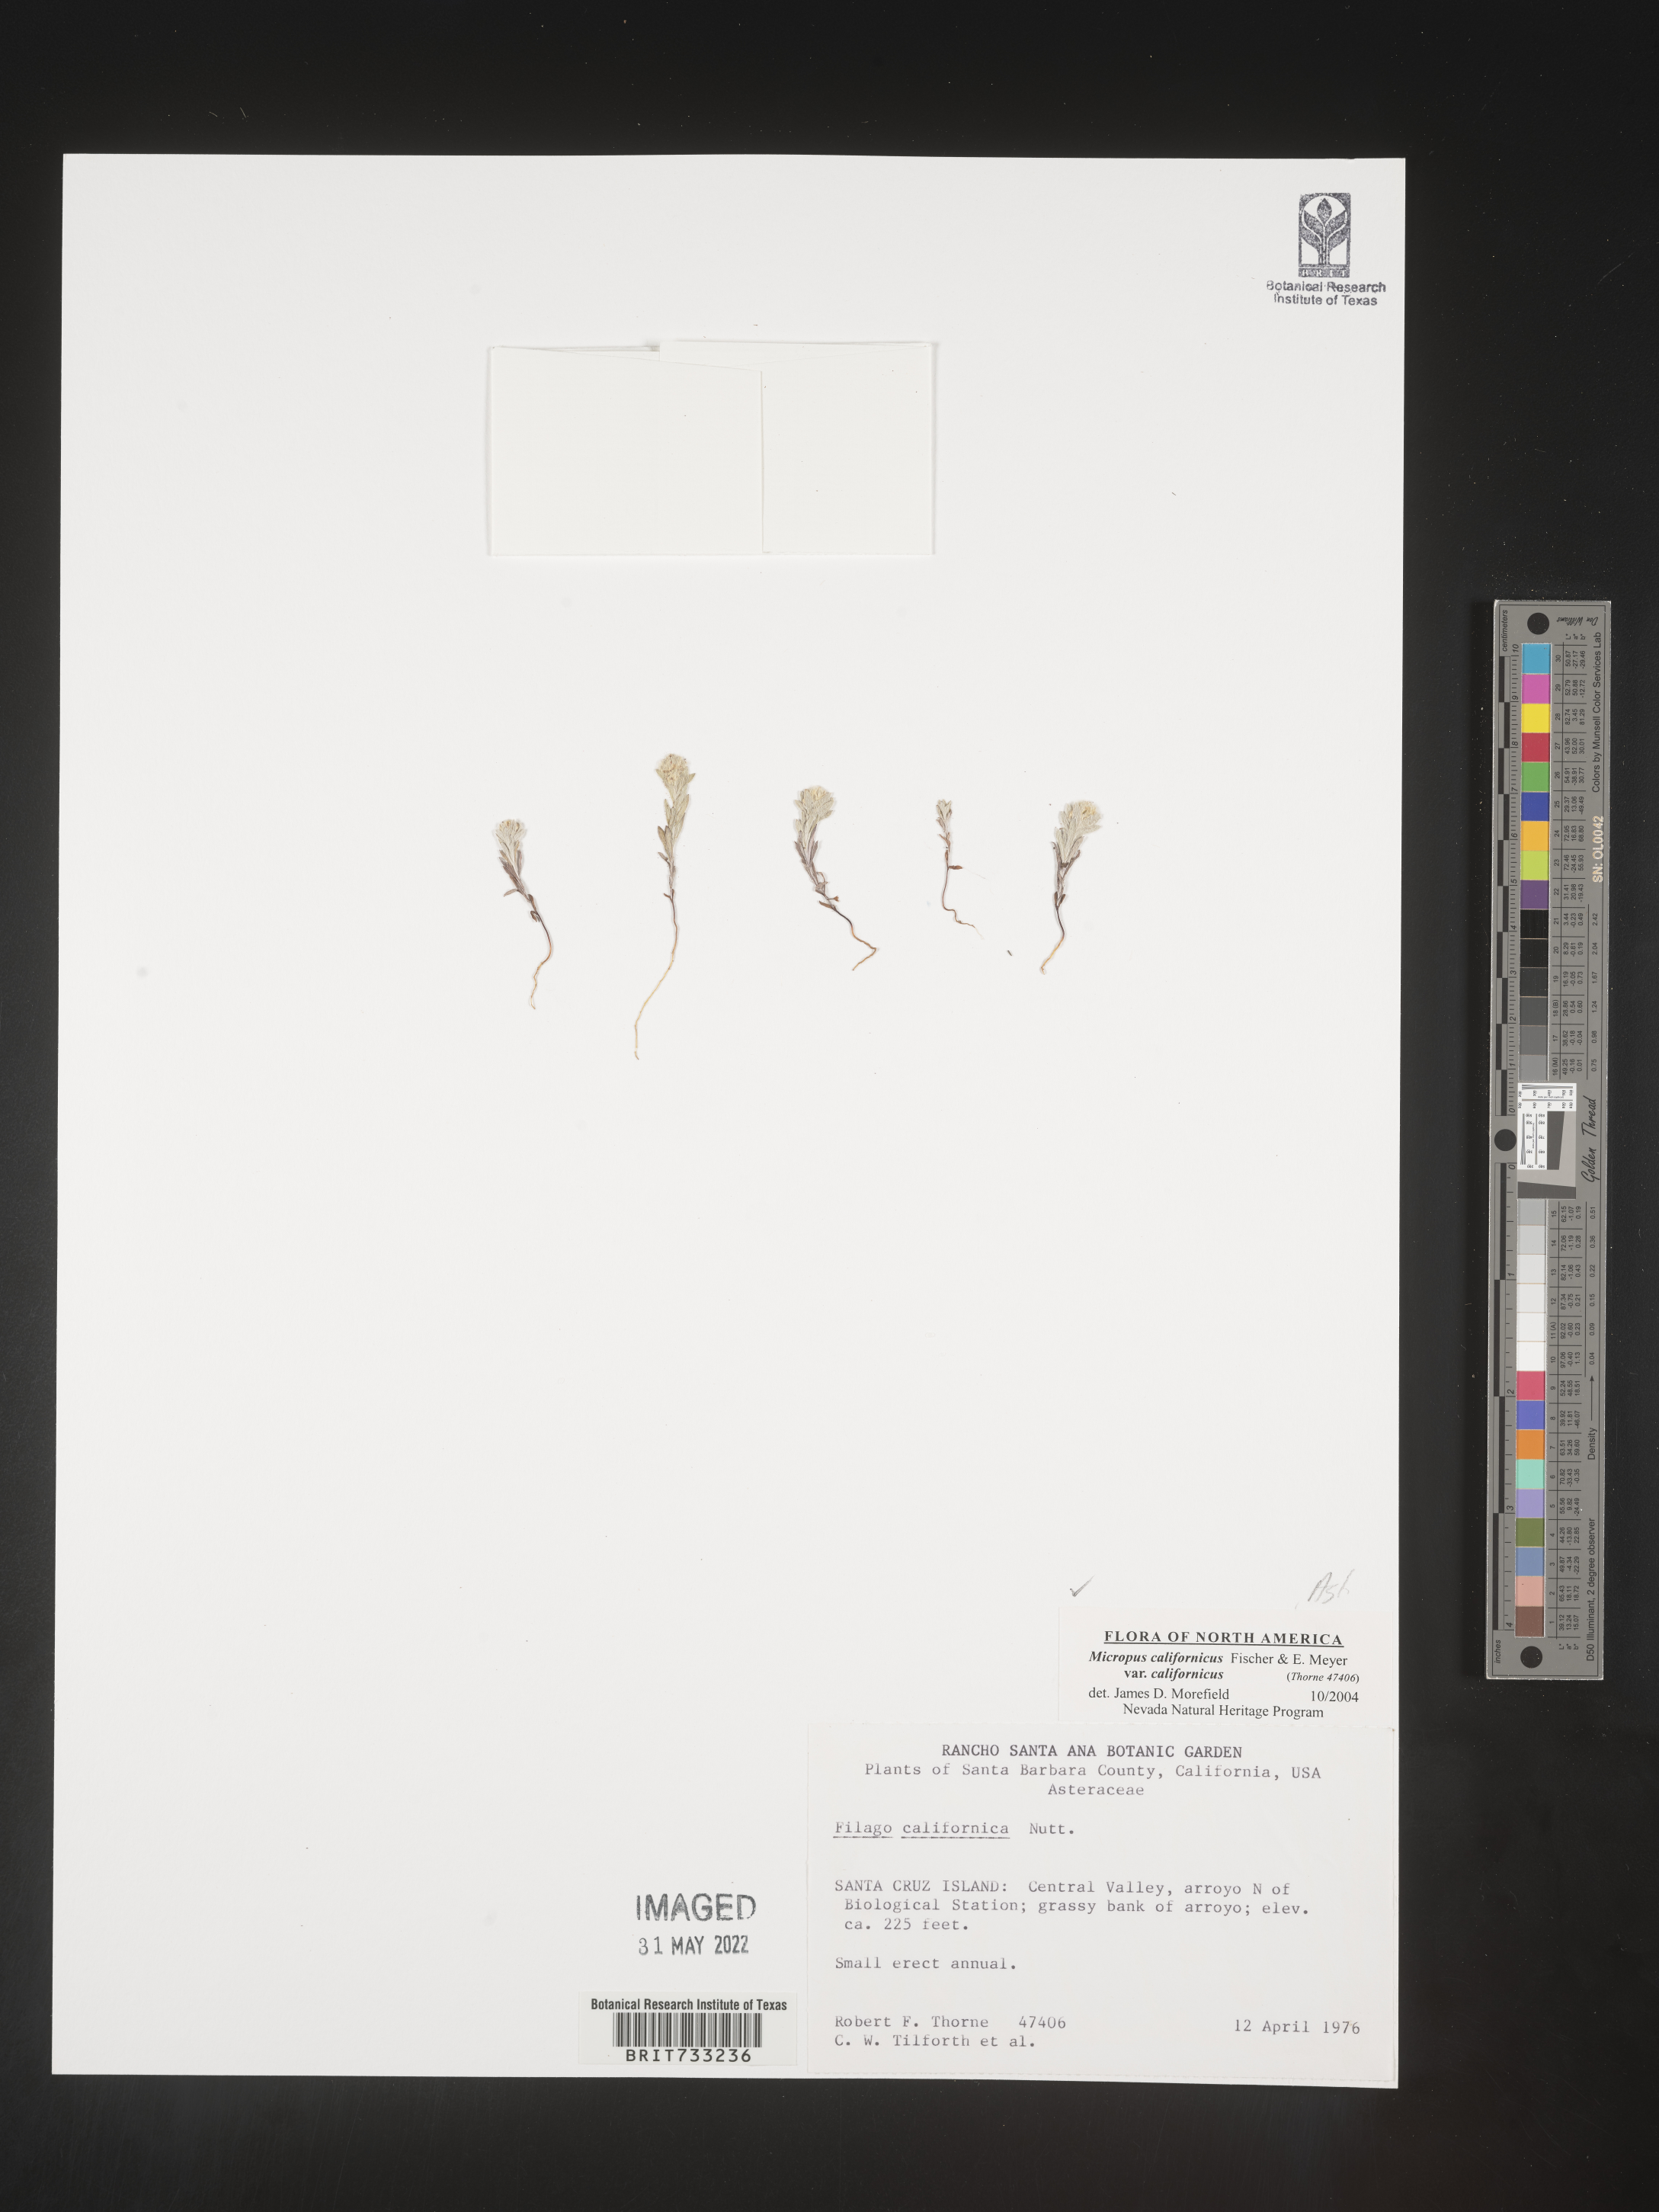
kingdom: Plantae
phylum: Tracheophyta
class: Magnoliopsida
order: Asterales
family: Asteraceae
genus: Micropus
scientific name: Micropus
